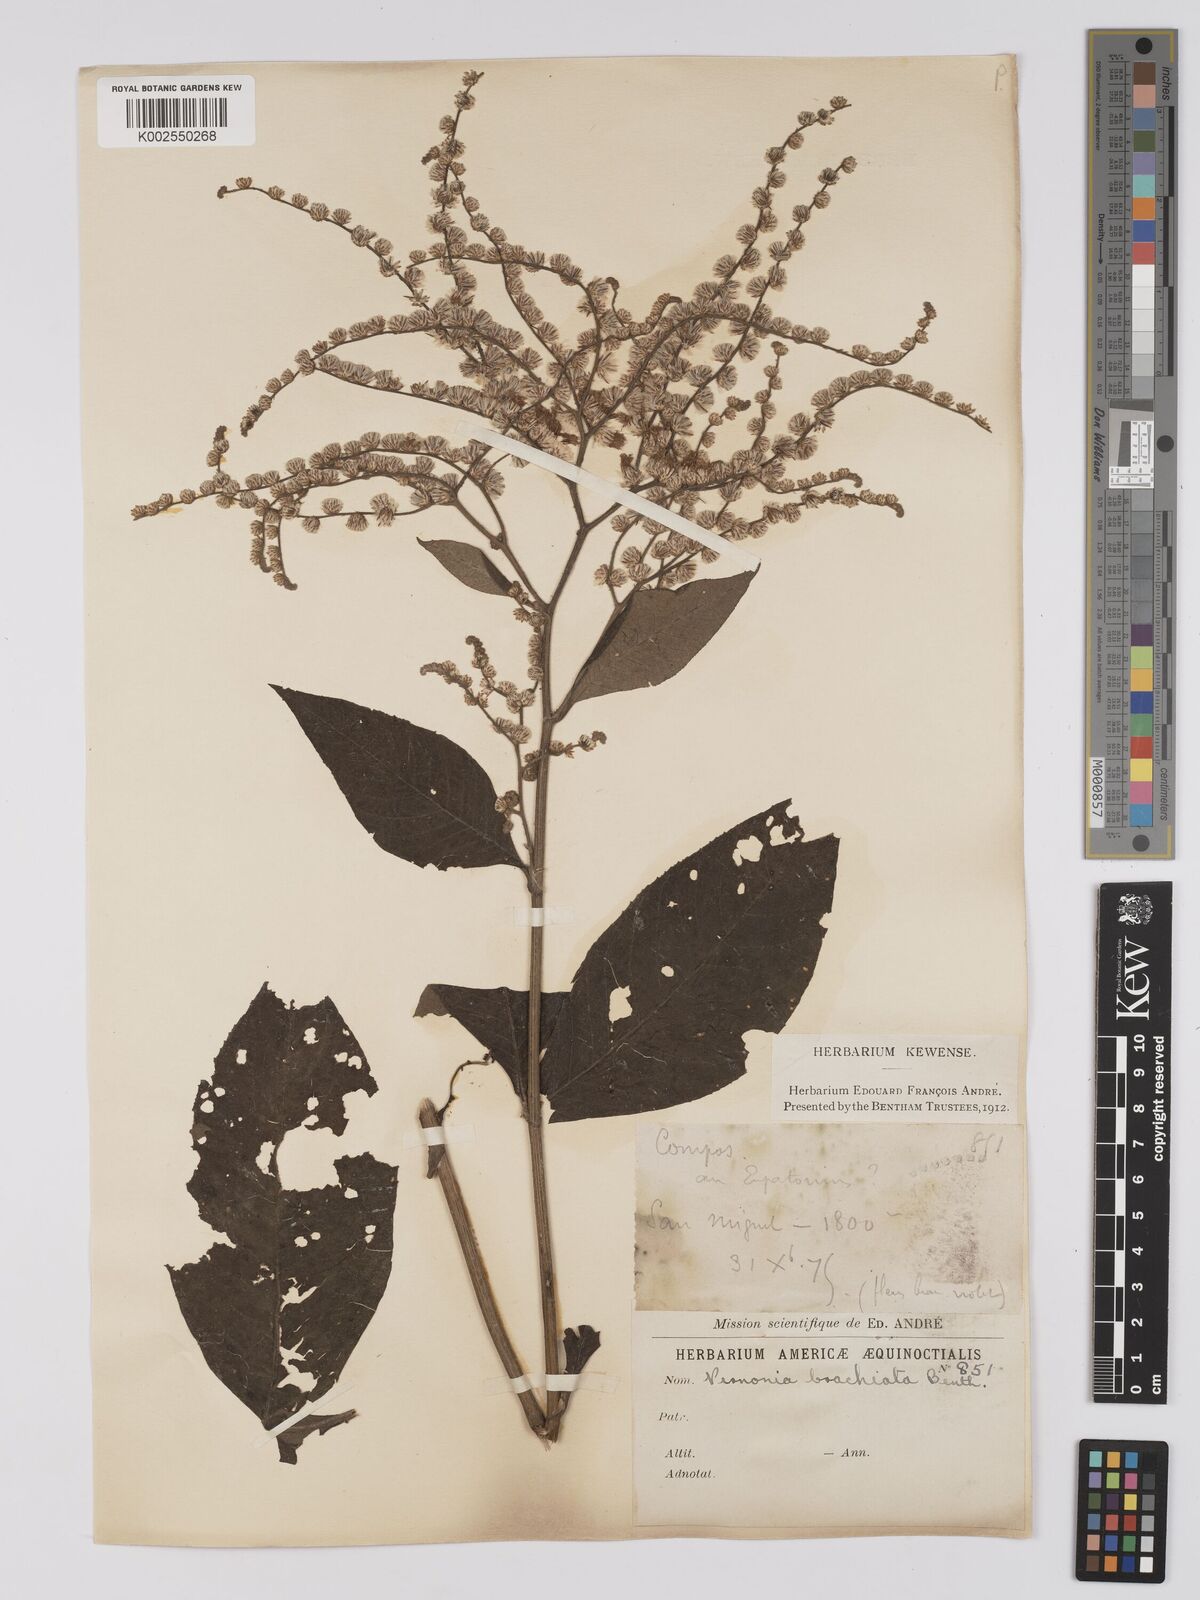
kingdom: Plantae
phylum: Tracheophyta
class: Magnoliopsida
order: Asterales
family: Asteraceae
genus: Eirmocephala
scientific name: Eirmocephala brachiata
